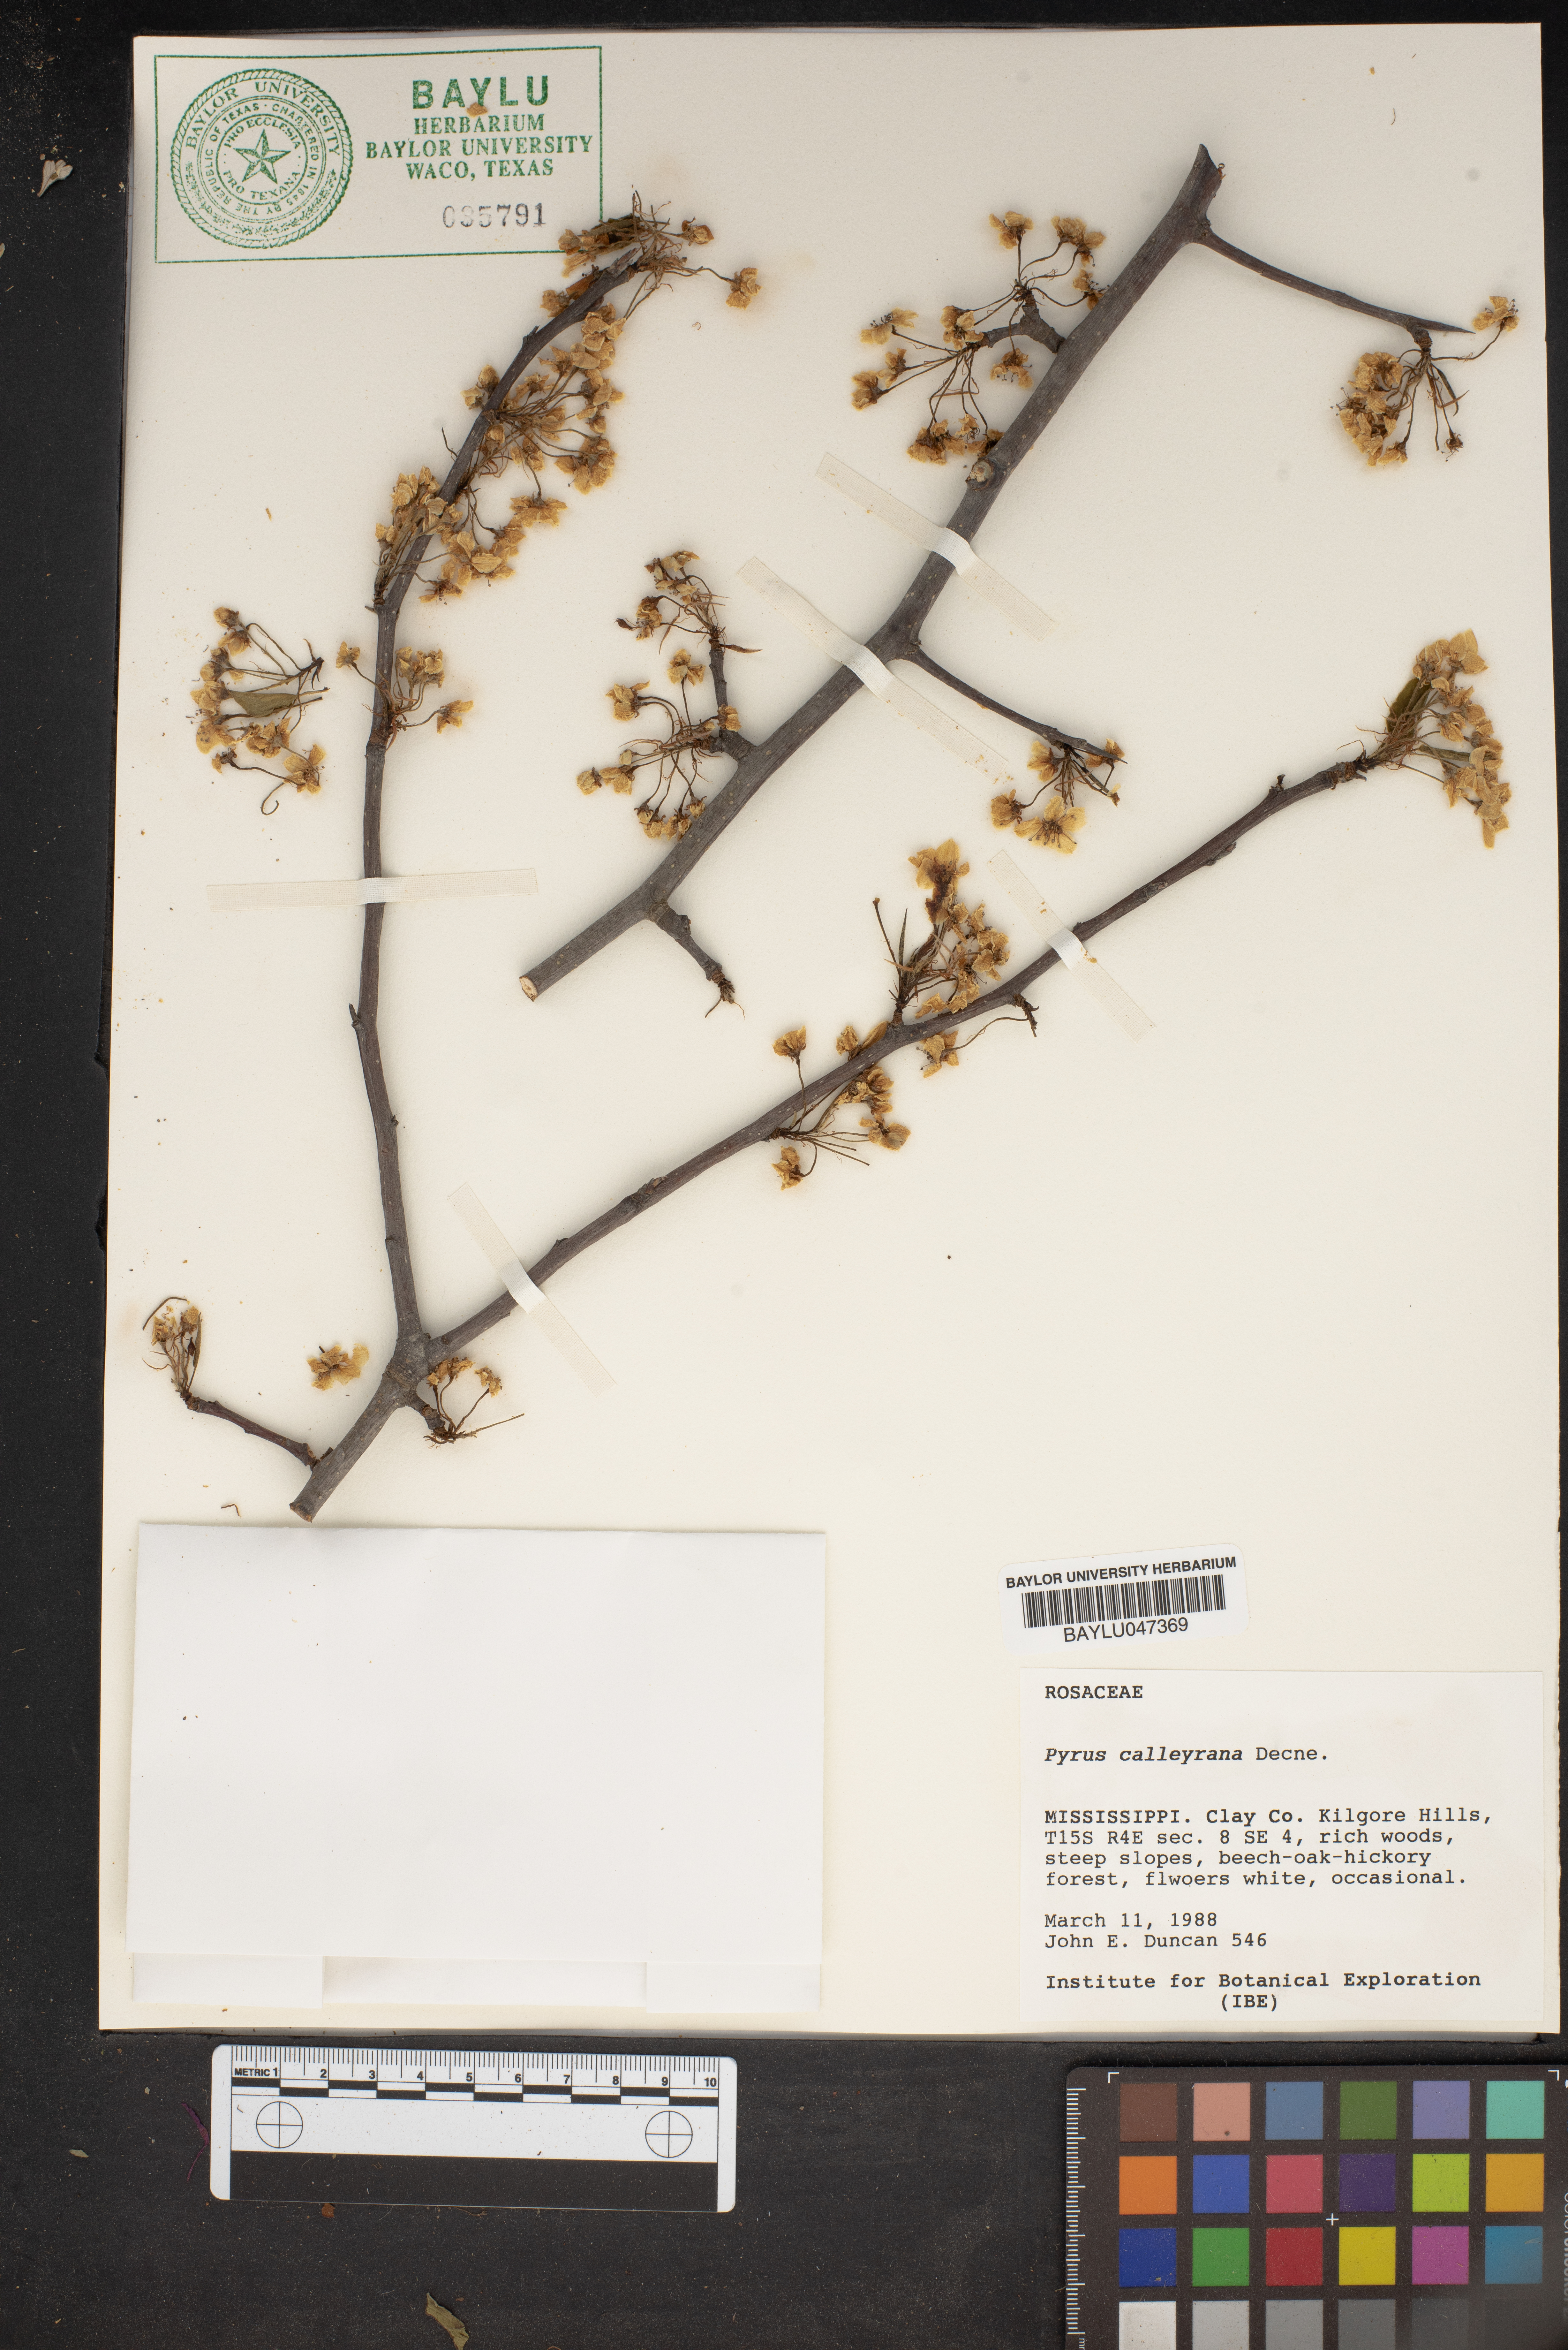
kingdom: Plantae
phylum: Tracheophyta
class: Magnoliopsida
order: Rosales
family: Rosaceae
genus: Pyrus
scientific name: Pyrus calleryana
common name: Callery pear
